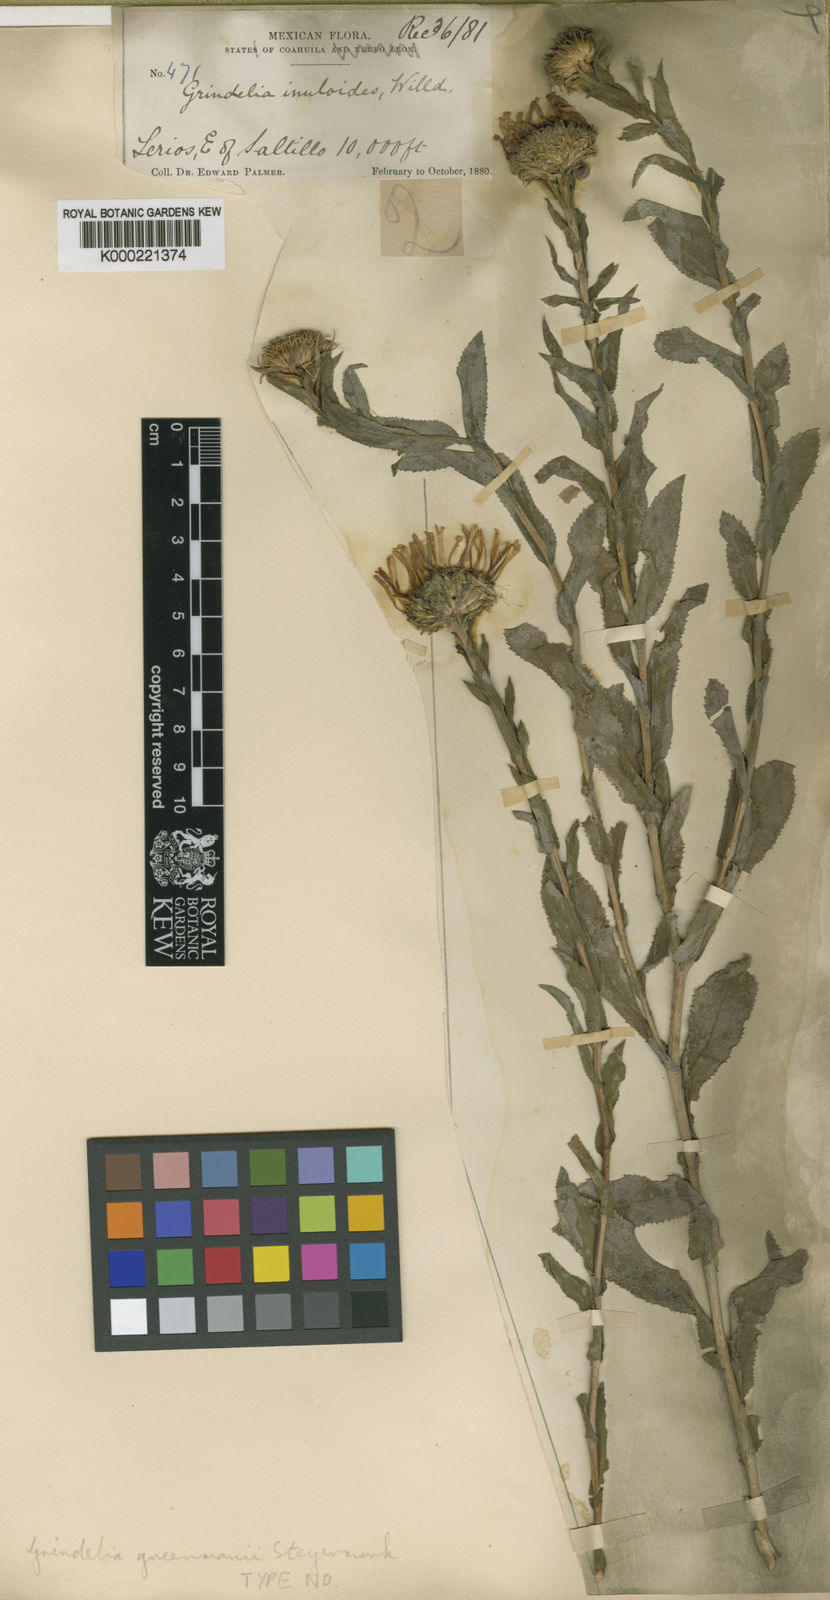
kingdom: Plantae
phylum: Tracheophyta
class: Magnoliopsida
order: Asterales
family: Asteraceae
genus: Grindelia
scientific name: Grindelia greenmanii
